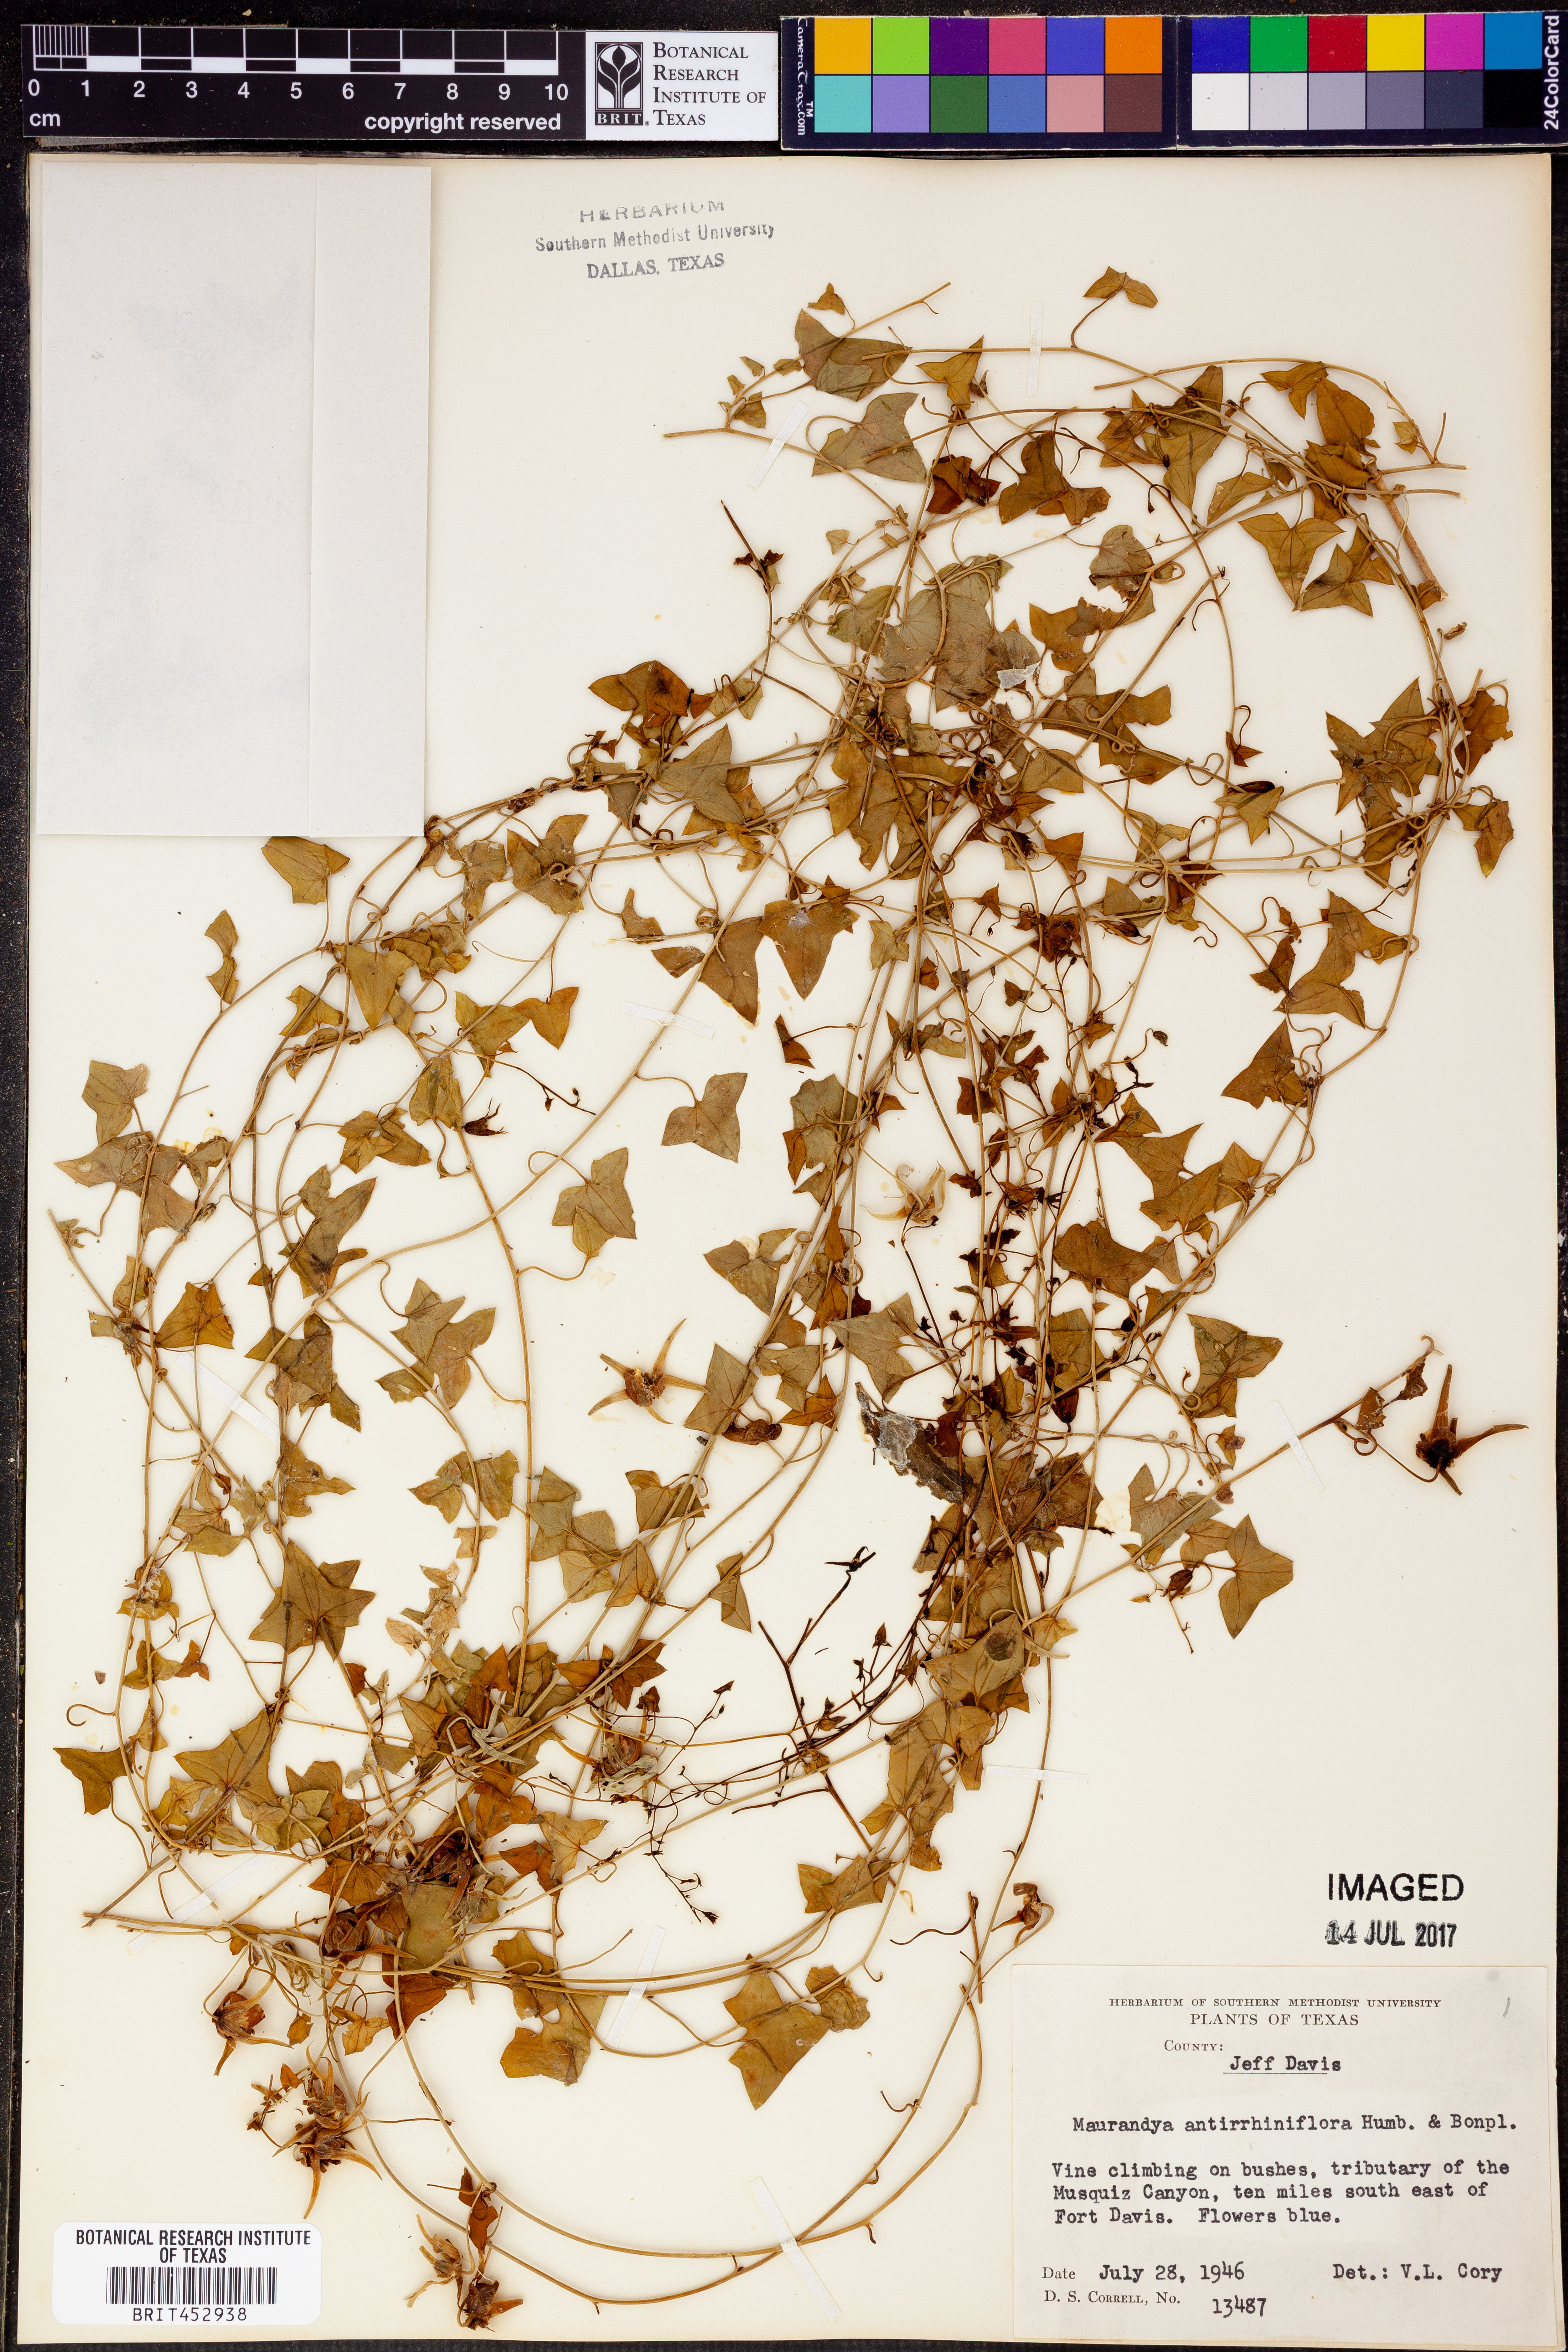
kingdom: Plantae
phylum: Tracheophyta
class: Magnoliopsida
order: Lamiales
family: Plantaginaceae
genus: Maurandella
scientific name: Maurandella antirrhiniflora
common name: Violet twining-snapdragon
